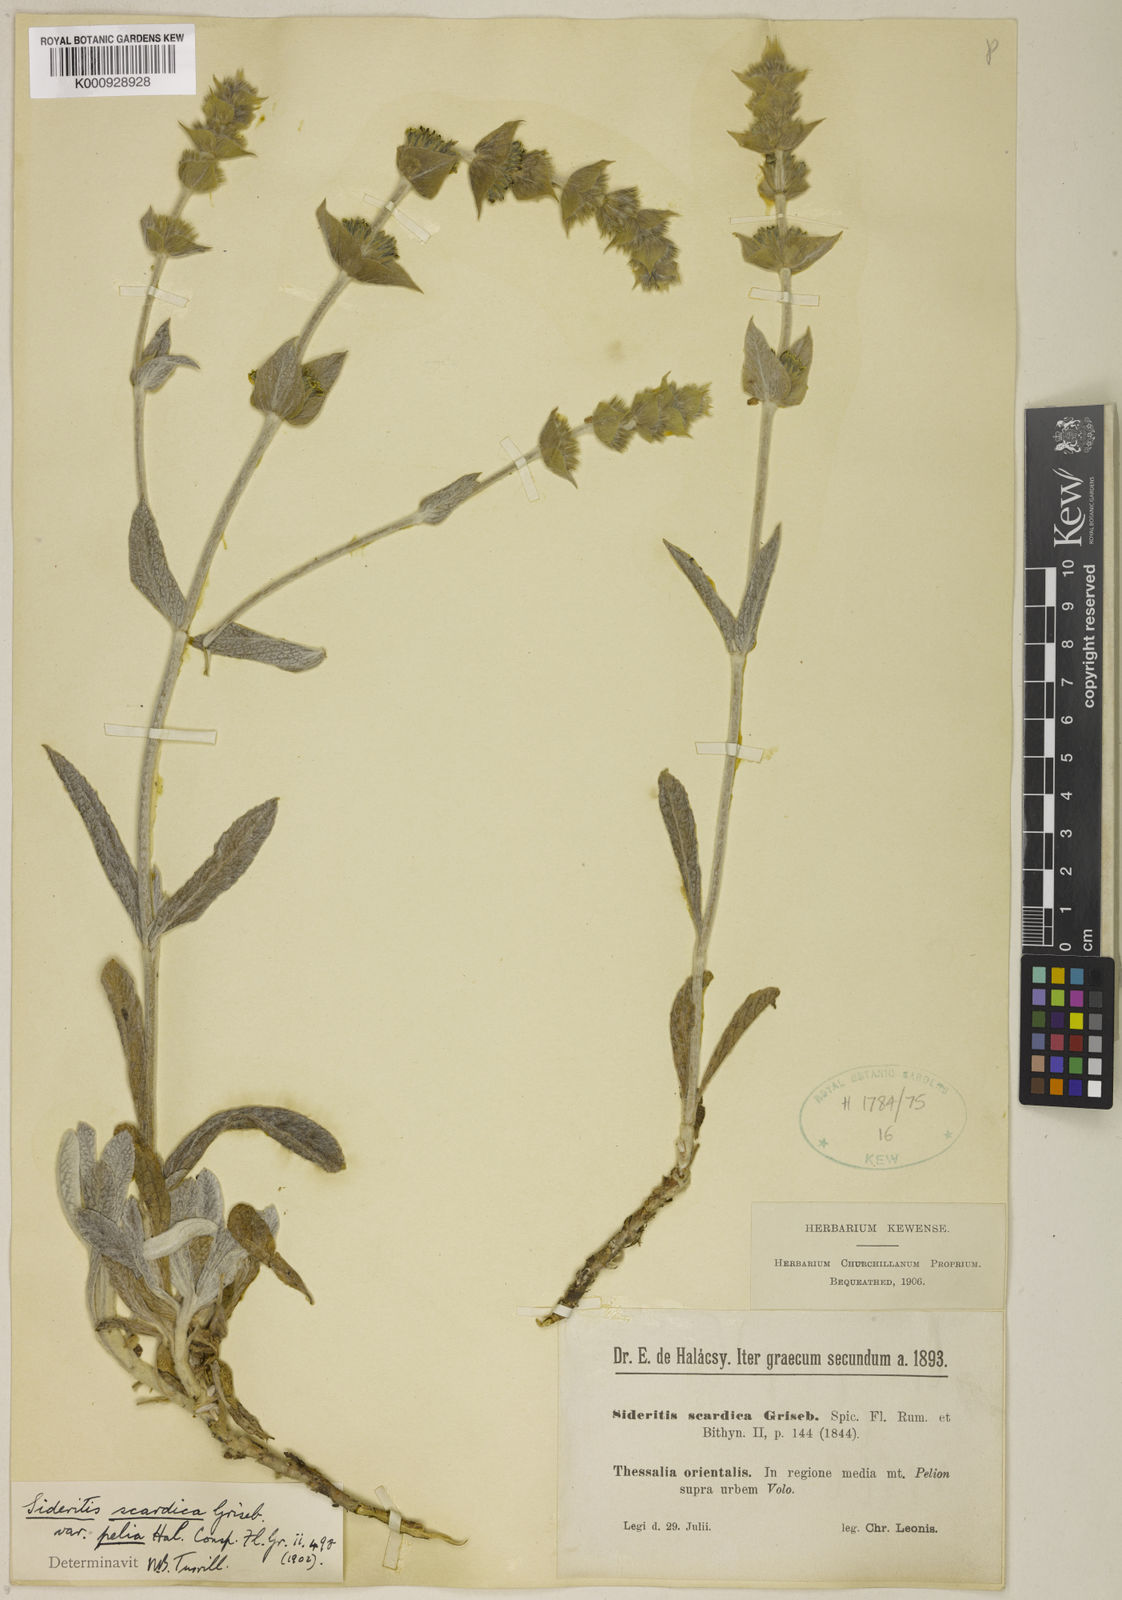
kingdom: Plantae
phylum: Tracheophyta
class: Magnoliopsida
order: Lamiales
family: Lamiaceae
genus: Sideritis
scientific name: Sideritis scardica
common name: Greek mountain tea
